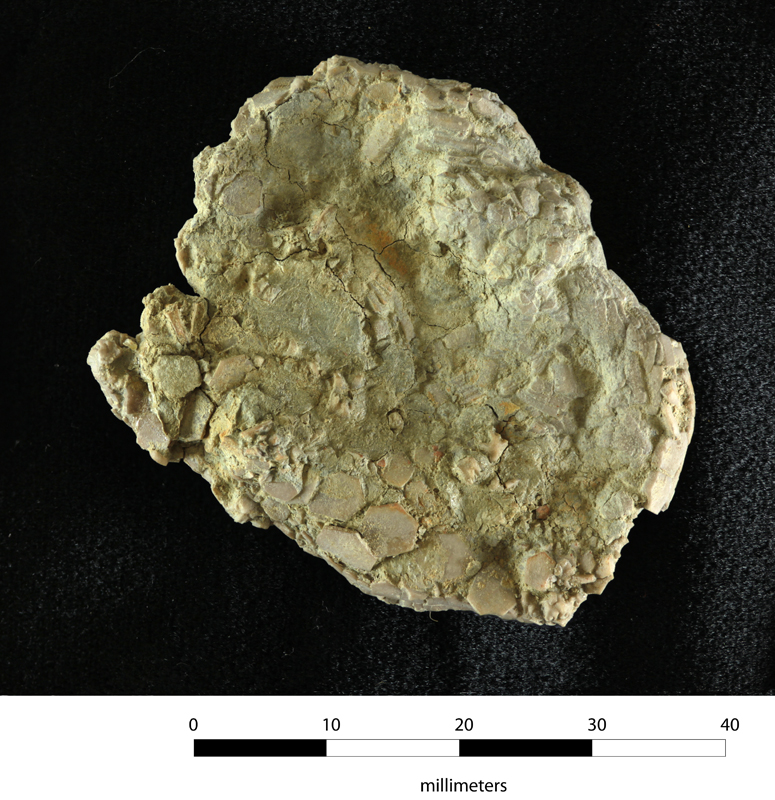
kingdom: Animalia
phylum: Echinodermata
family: Agelacrinitidae
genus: Hypsiclavus
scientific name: Hypsiclavus kinsleyi
